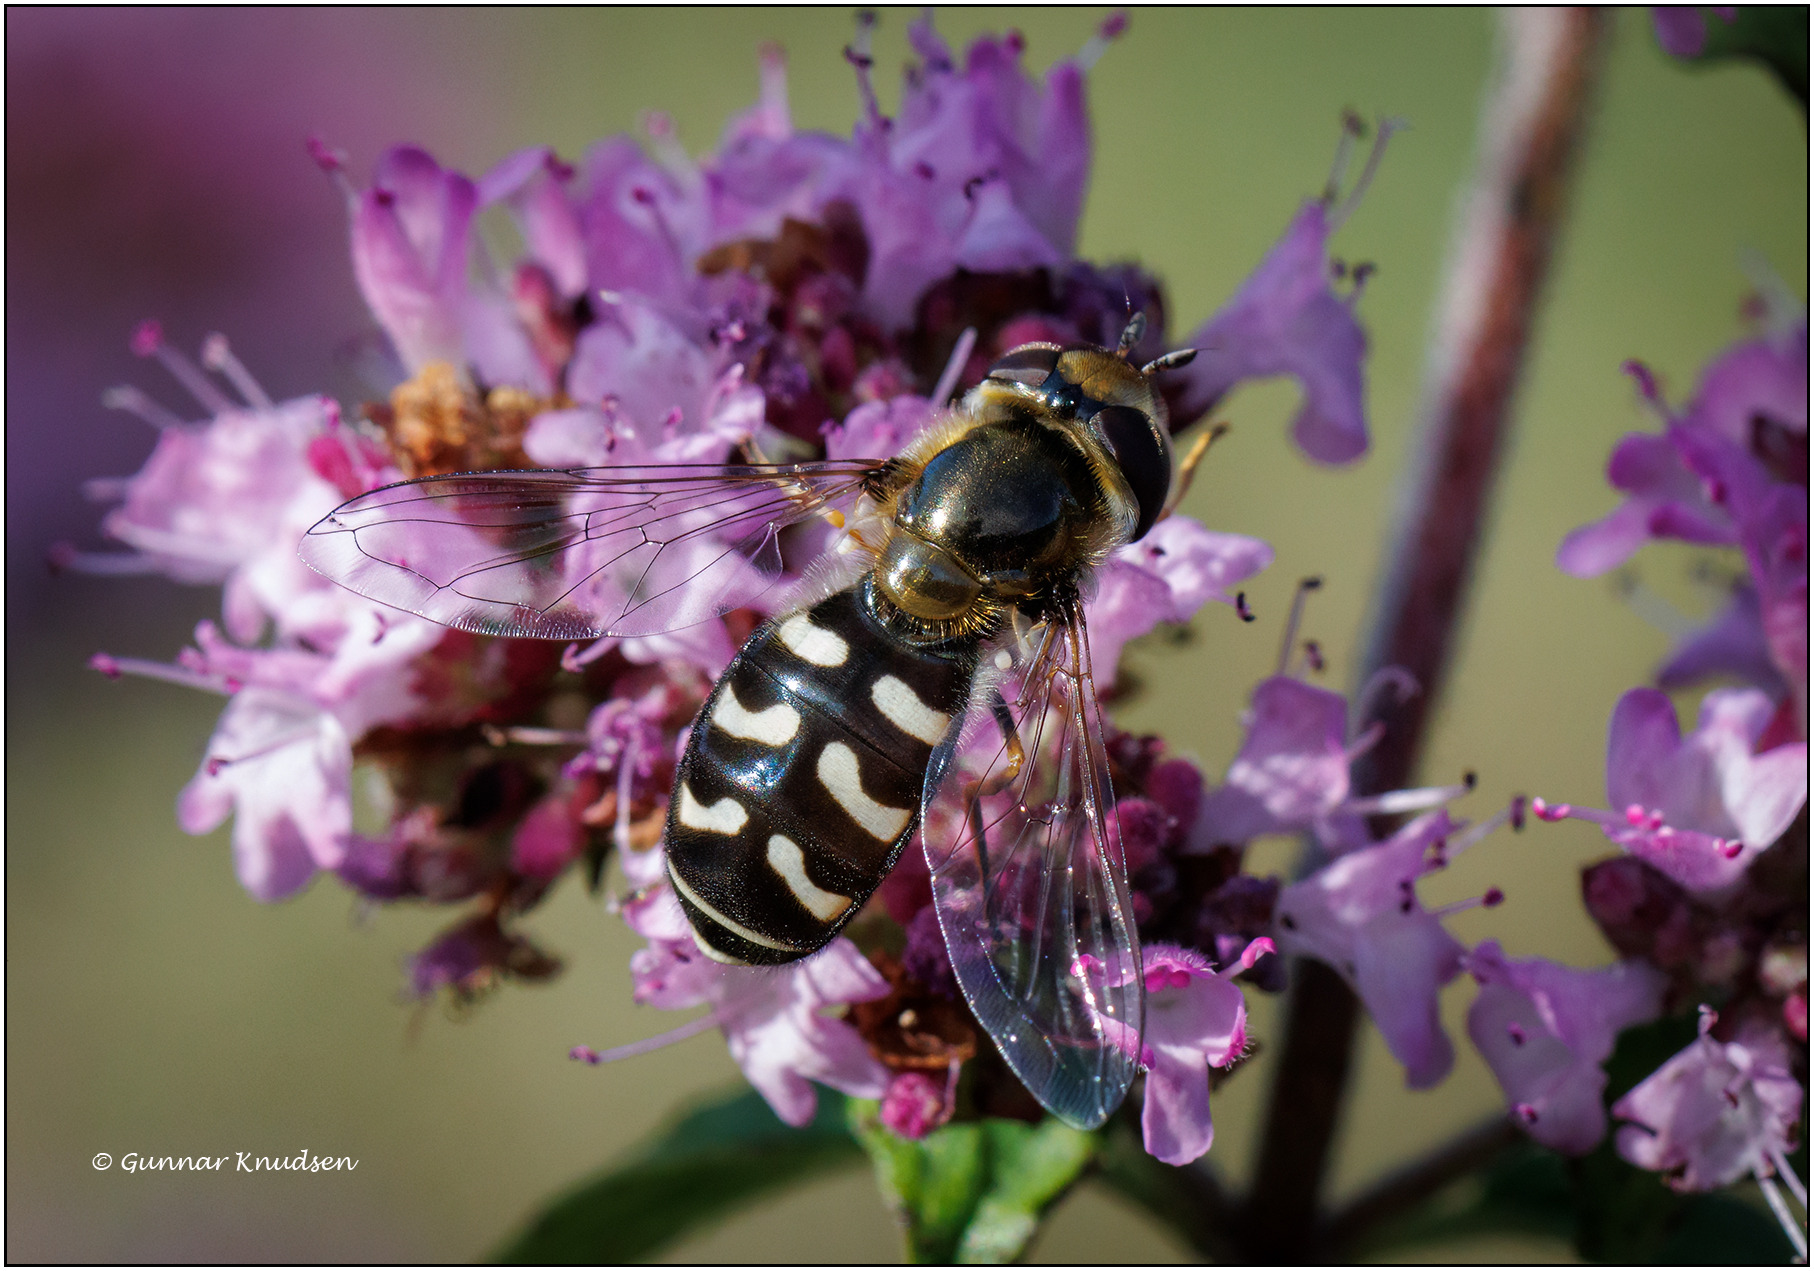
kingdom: Animalia
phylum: Arthropoda
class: Insecta
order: Diptera
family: Syrphidae
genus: Scaeva
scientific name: Scaeva pyrastri
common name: Hvidplettet agersvirreflue
